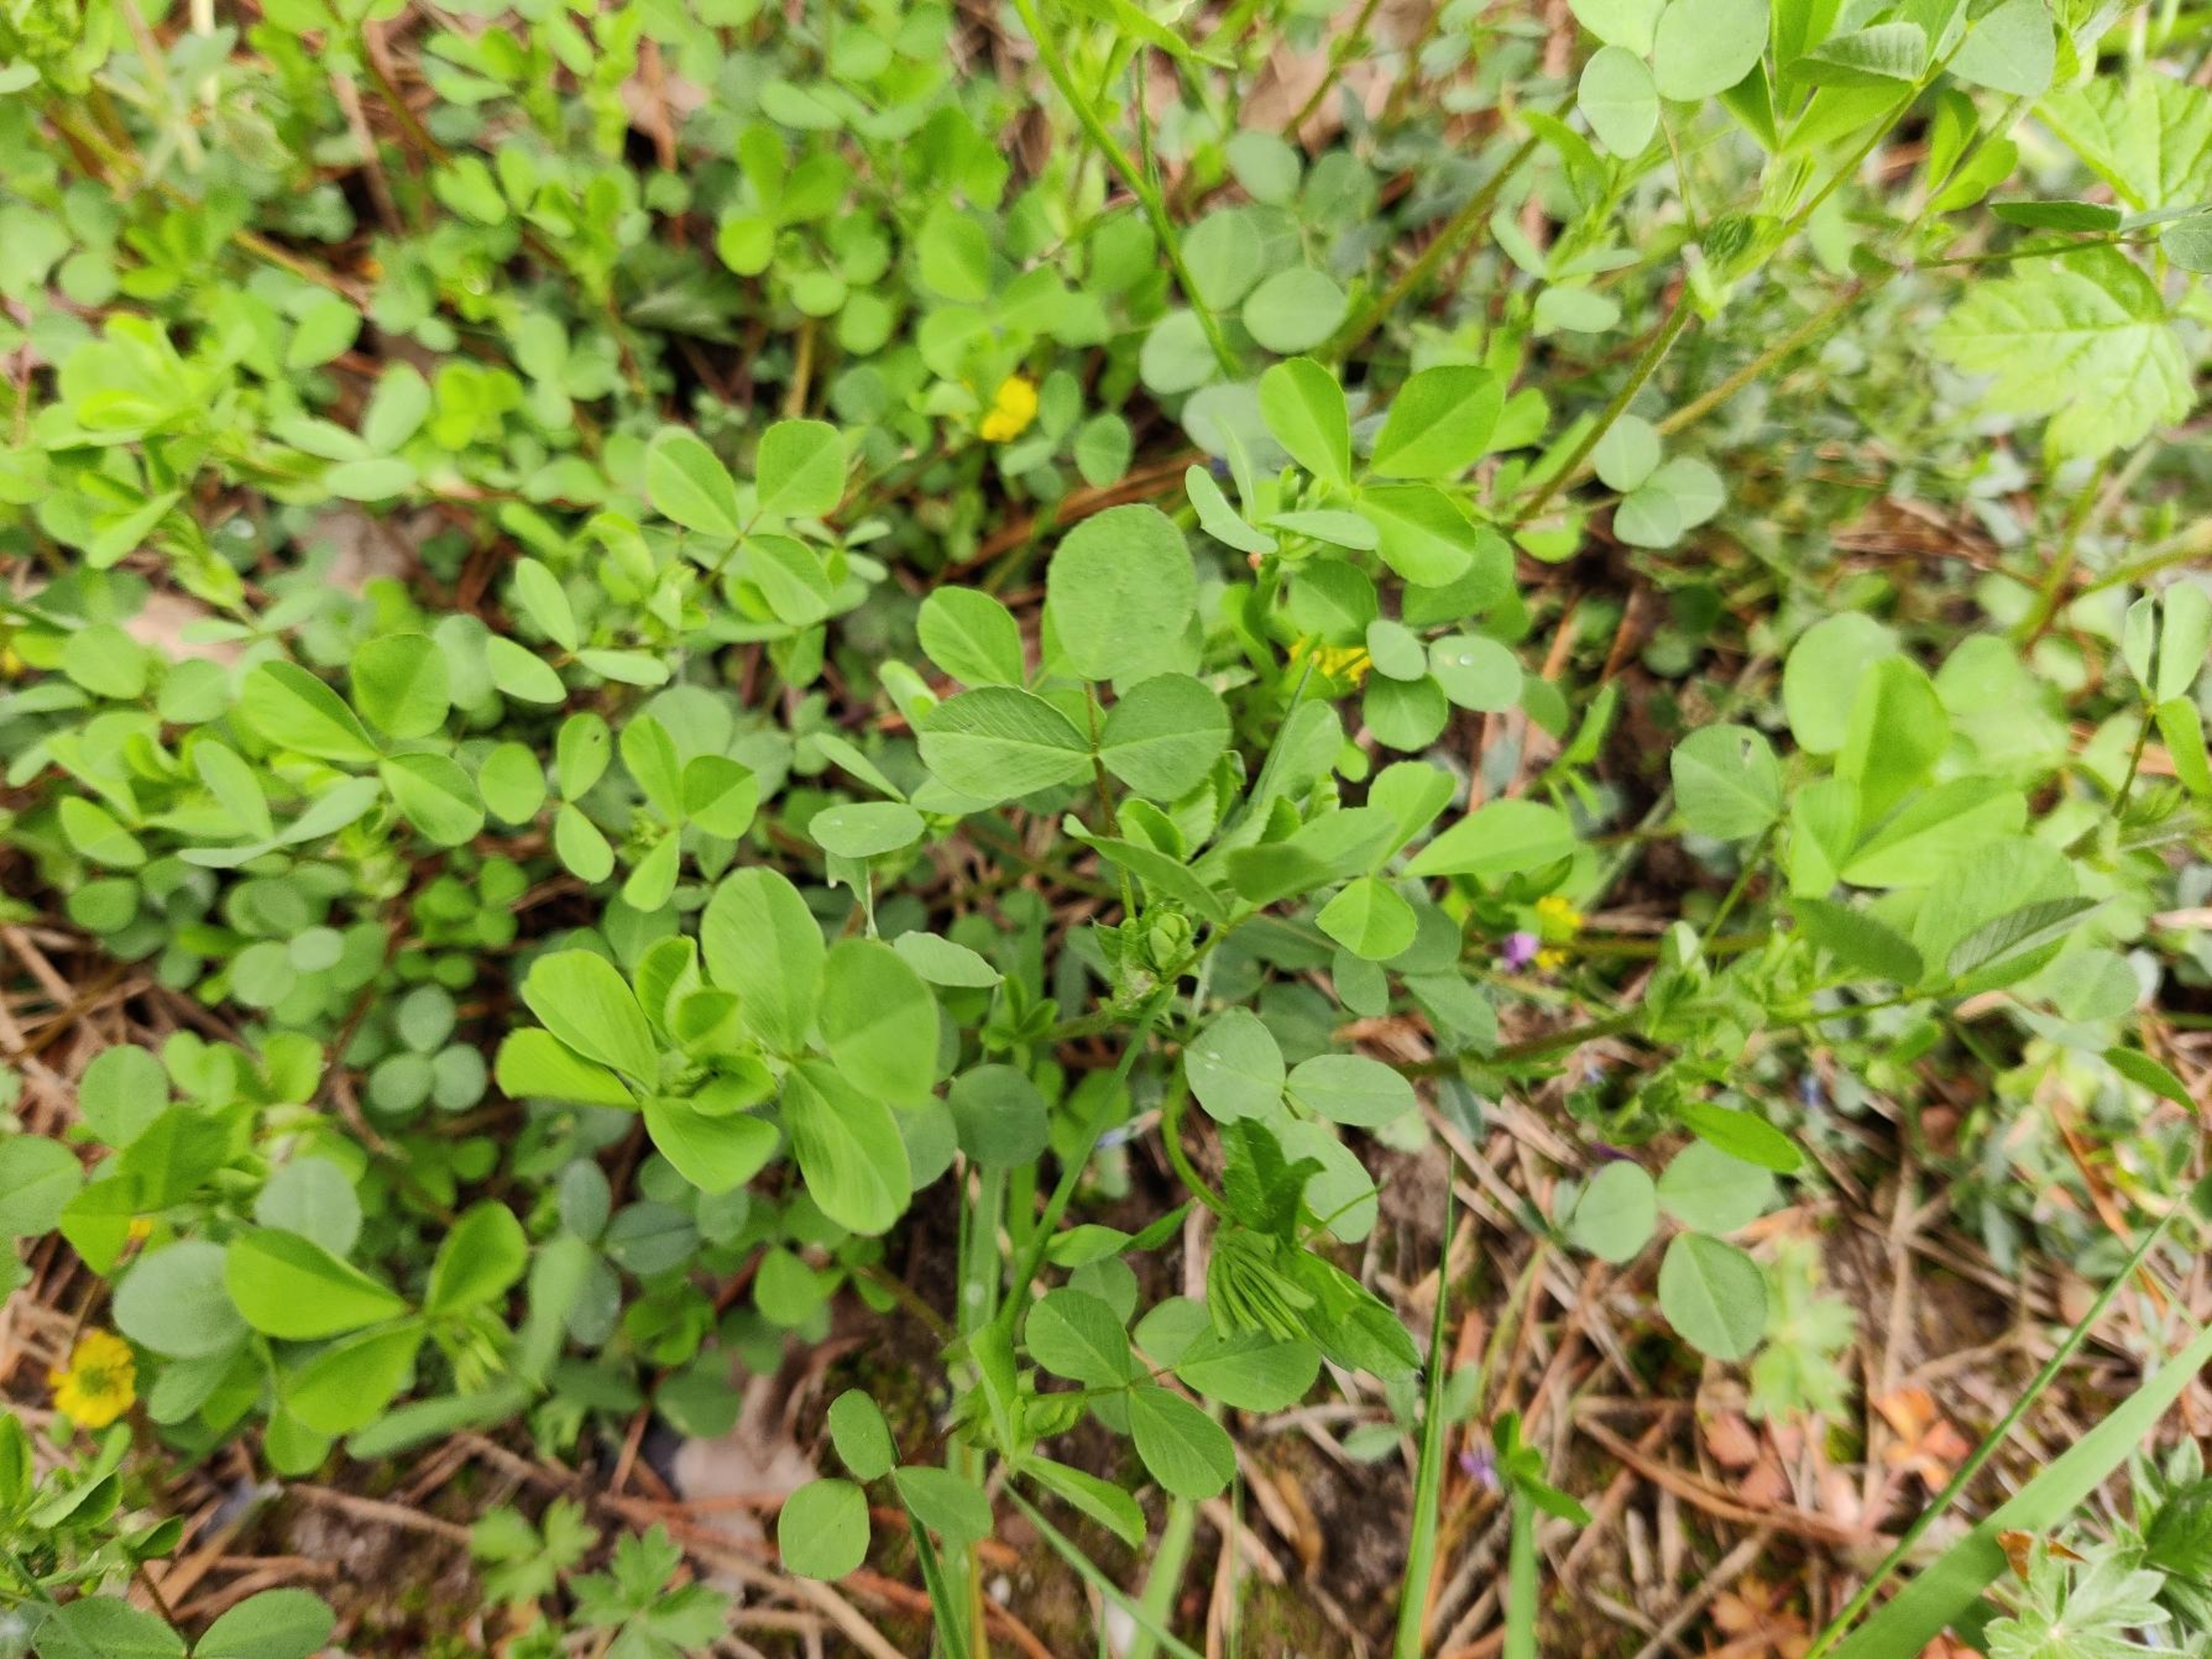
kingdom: Plantae
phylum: Tracheophyta
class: Magnoliopsida
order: Fabales
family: Fabaceae
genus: Trifolium
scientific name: Trifolium campestre
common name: Gul kløver
